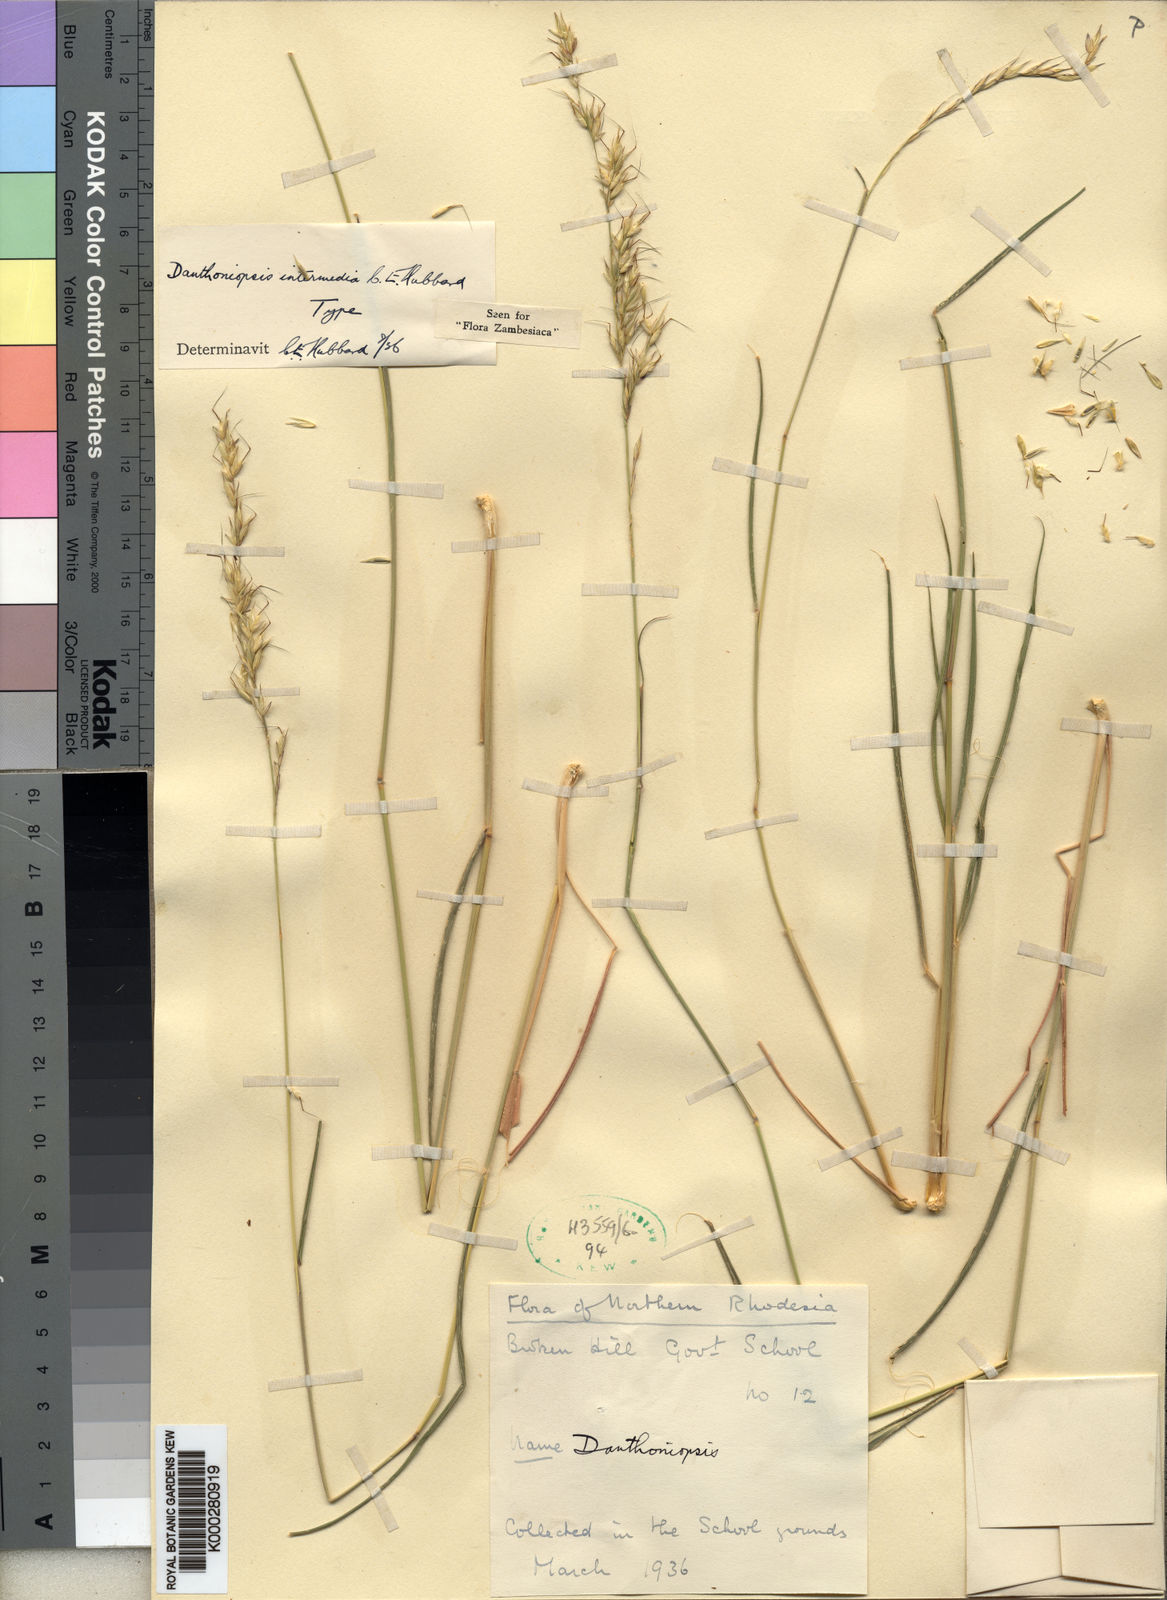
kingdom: Plantae
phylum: Tracheophyta
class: Liliopsida
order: Poales
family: Poaceae
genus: Danthoniopsis
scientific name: Danthoniopsis viridis
